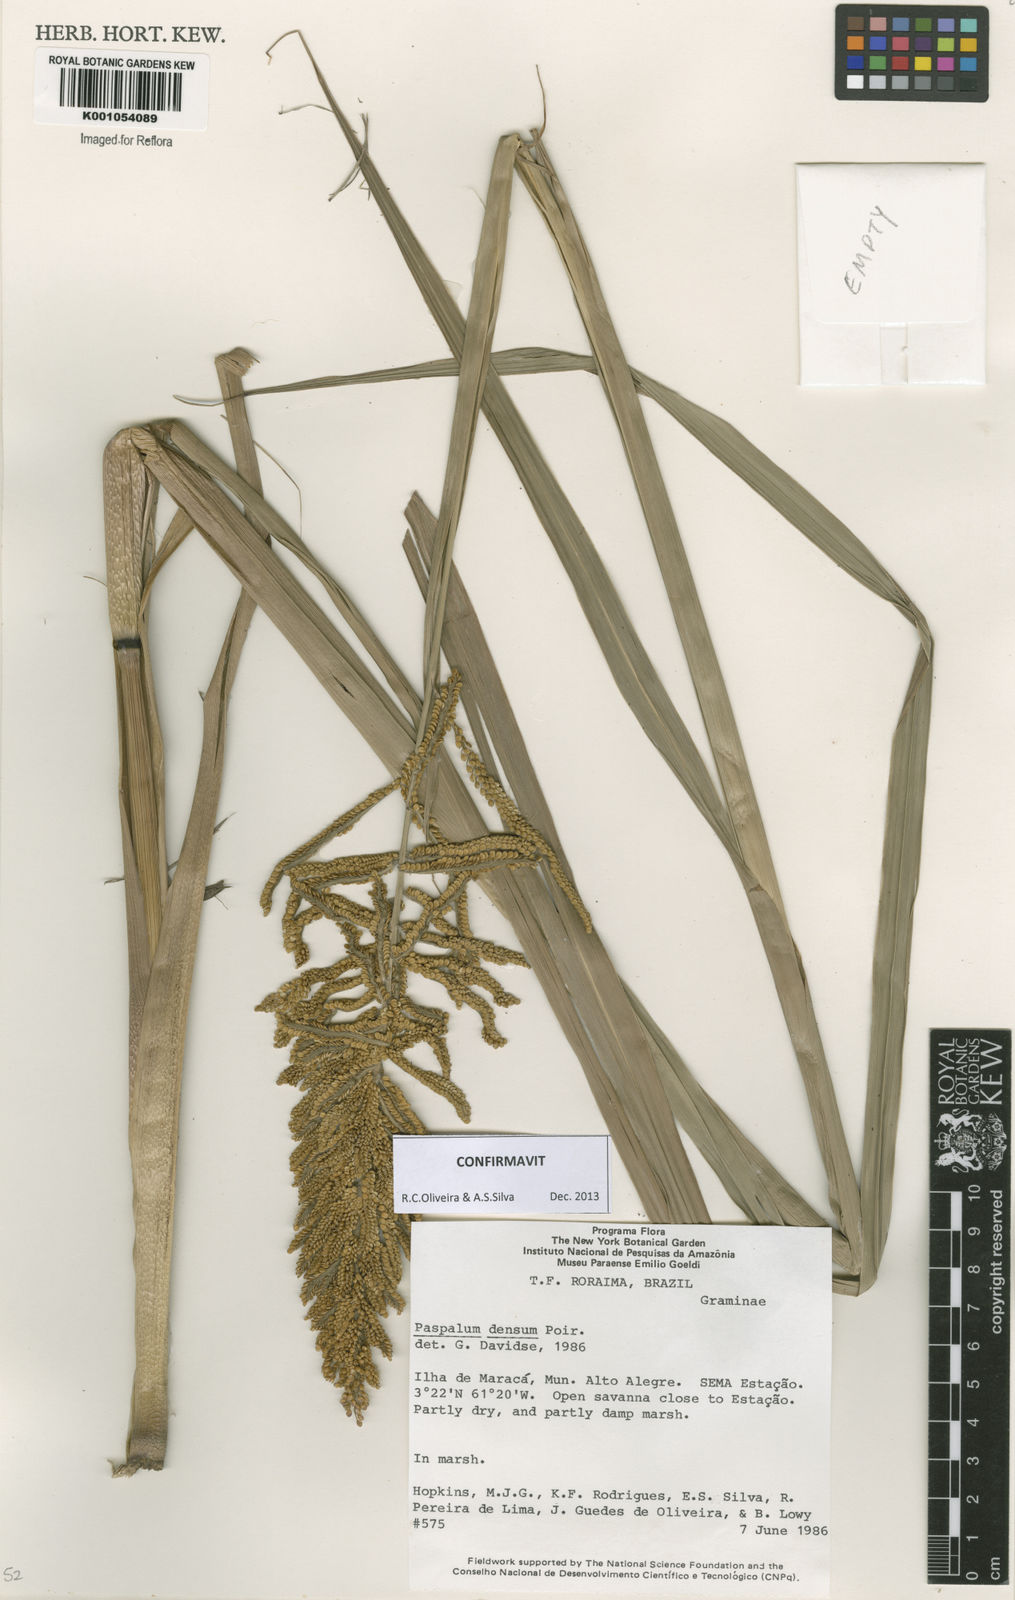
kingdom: Plantae
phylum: Tracheophyta
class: Liliopsida
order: Poales
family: Poaceae
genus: Paspalum
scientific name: Paspalum densum
